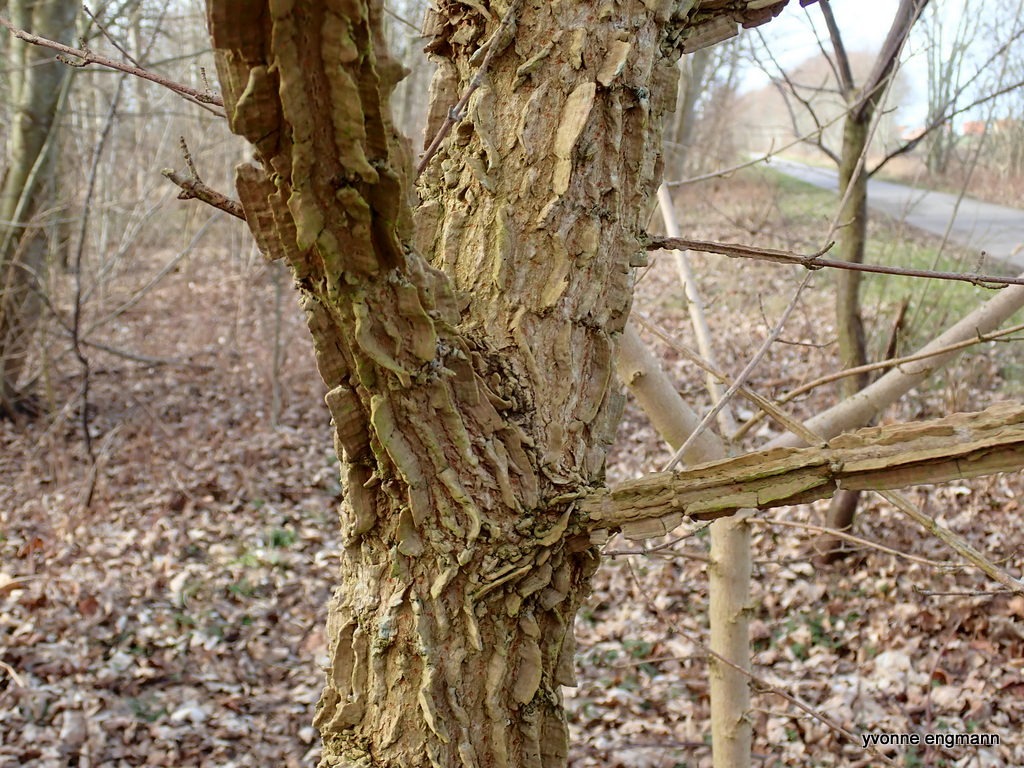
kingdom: Plantae
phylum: Tracheophyta
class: Magnoliopsida
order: Sapindales
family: Sapindaceae
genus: Acer
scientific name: Acer campestre
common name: Navr
